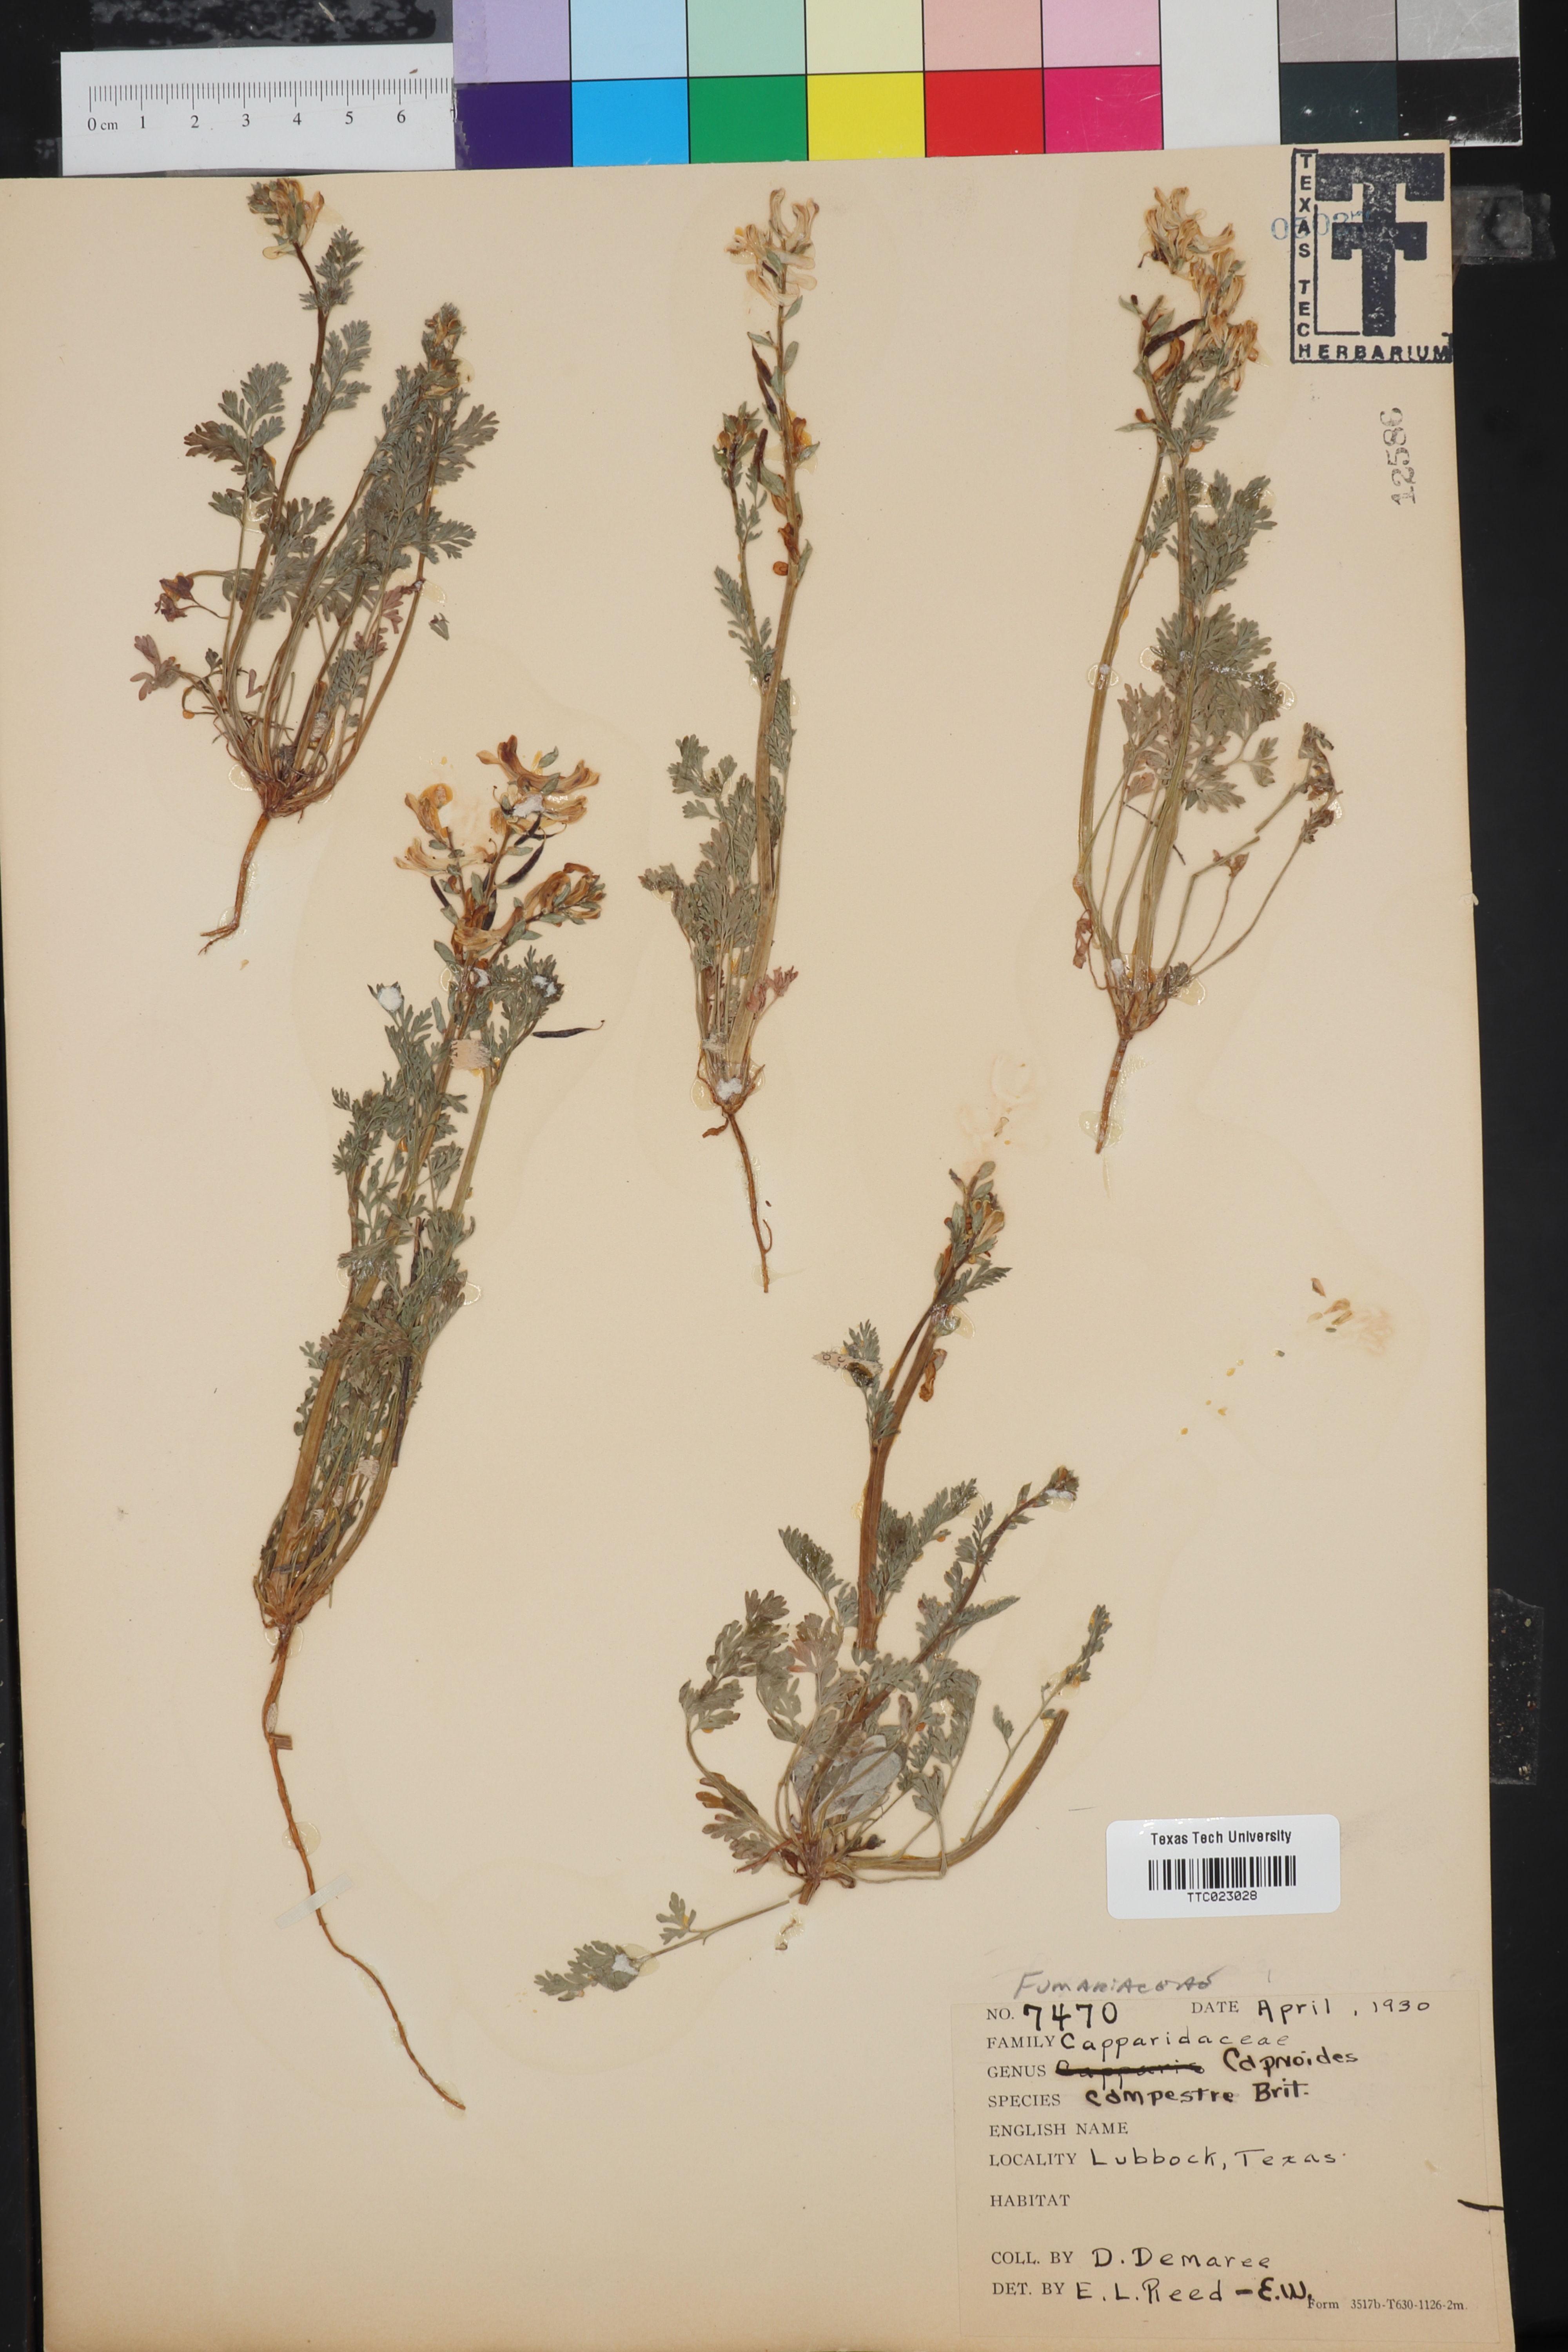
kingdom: Plantae
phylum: Tracheophyta
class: Magnoliopsida
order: Ranunculales
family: Papaveraceae
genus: Corydalis
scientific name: Corydalis micrantha
